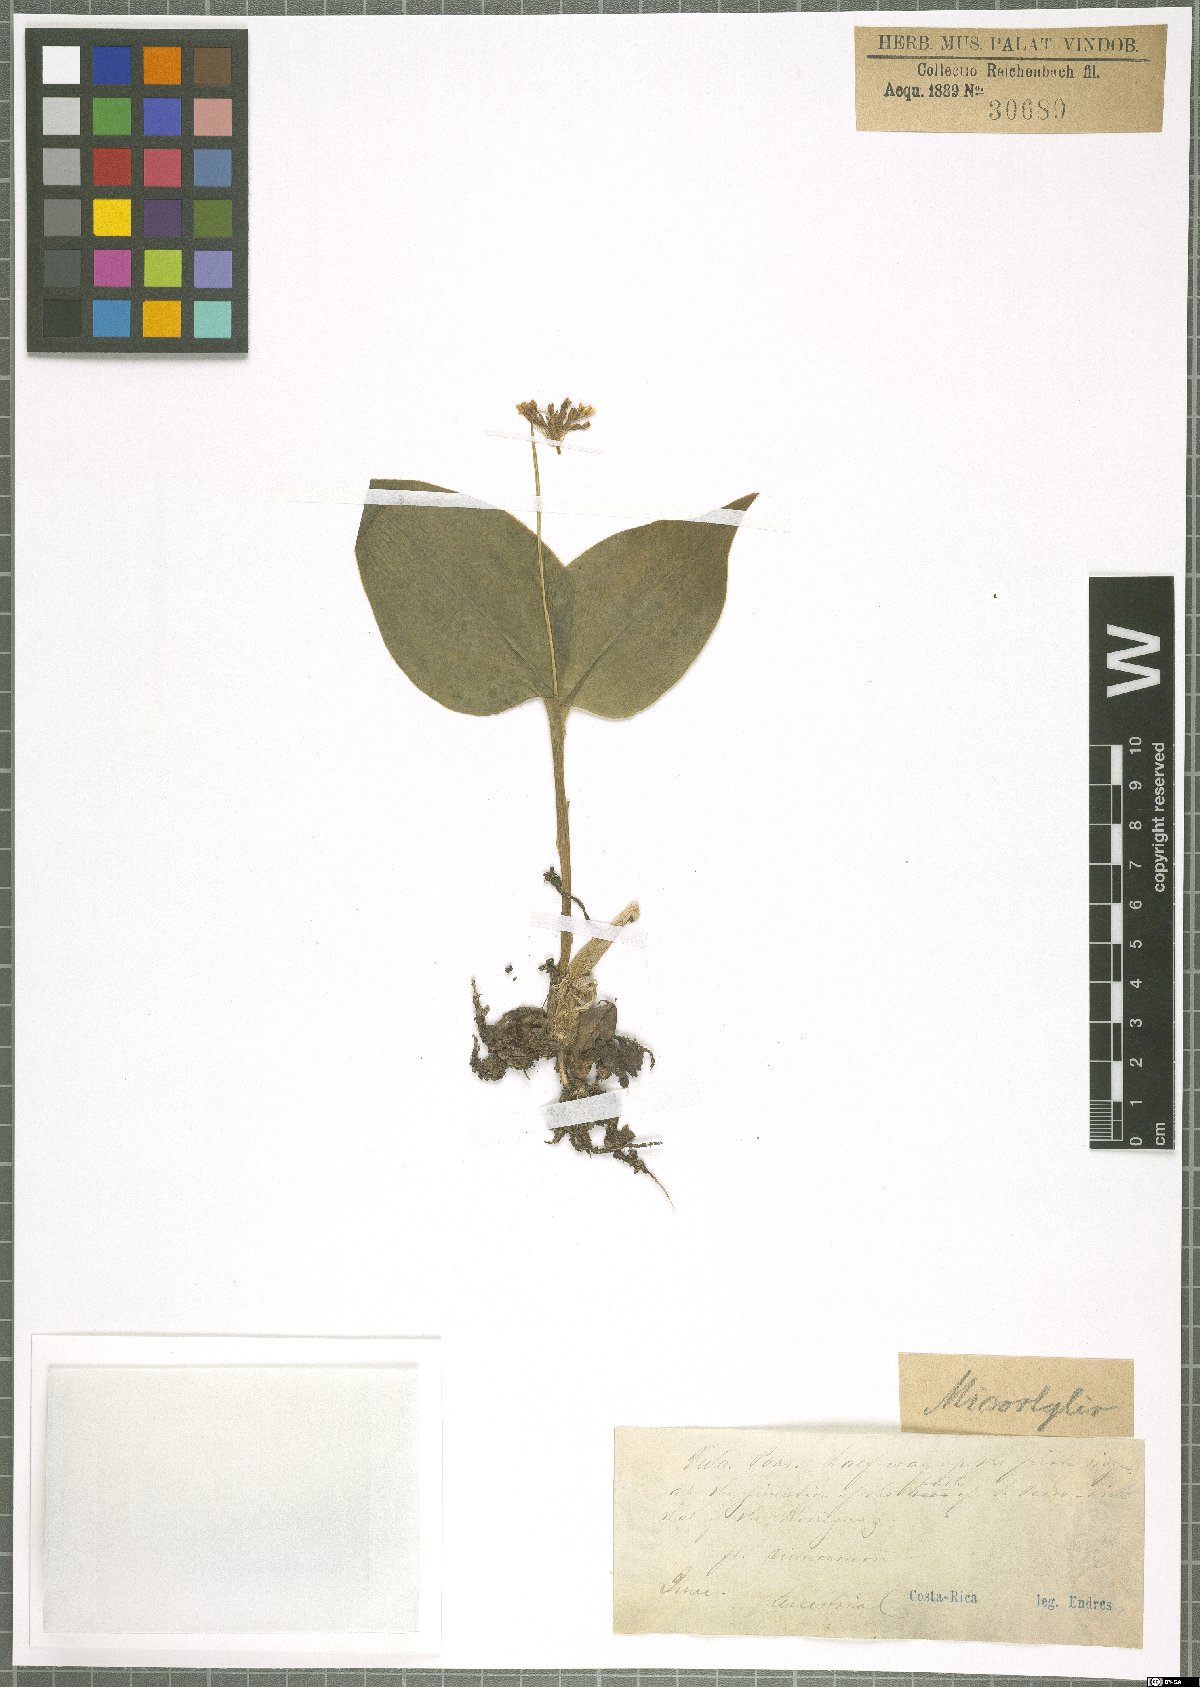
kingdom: Plantae
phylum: Tracheophyta
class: Liliopsida
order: Asparagales
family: Orchidaceae
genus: Microstylis
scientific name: Microstylis
